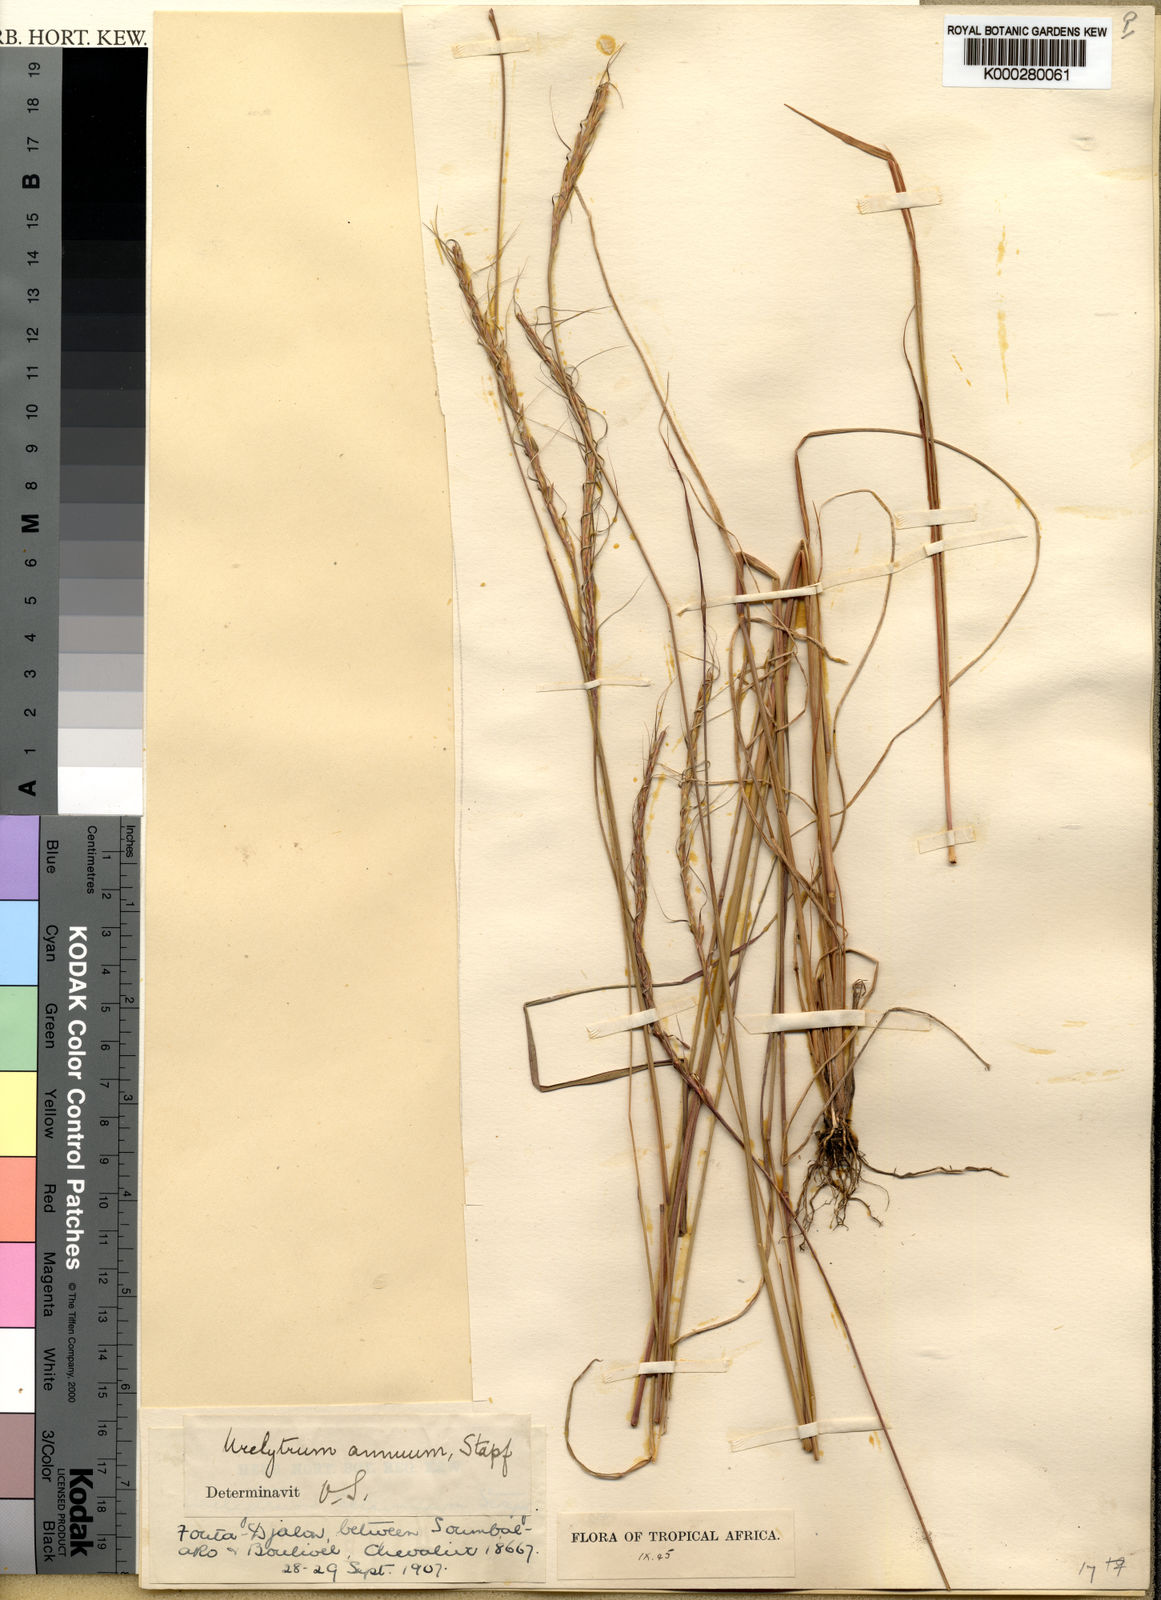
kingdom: Plantae
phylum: Tracheophyta
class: Liliopsida
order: Poales
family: Poaceae
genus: Urelytrum
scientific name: Urelytrum annuum
